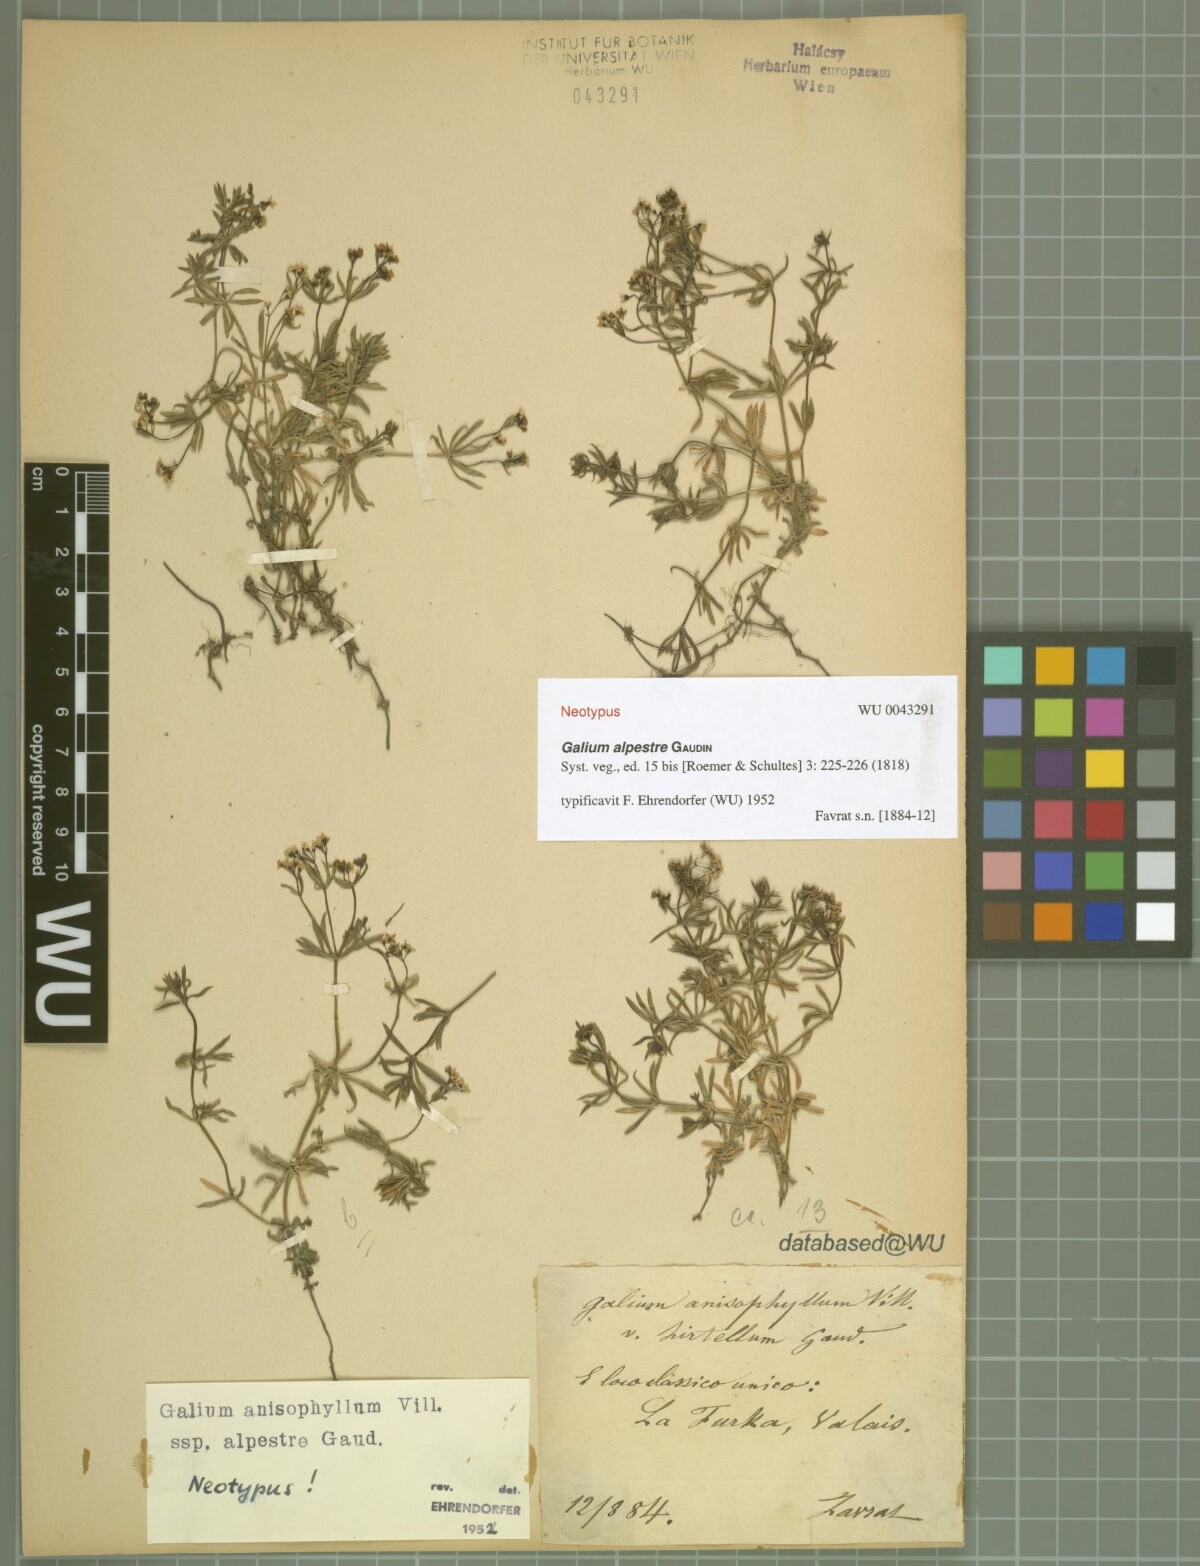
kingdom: Plantae
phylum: Tracheophyta
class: Magnoliopsida
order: Gentianales
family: Rubiaceae
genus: Galium
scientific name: Galium anisophyllon
